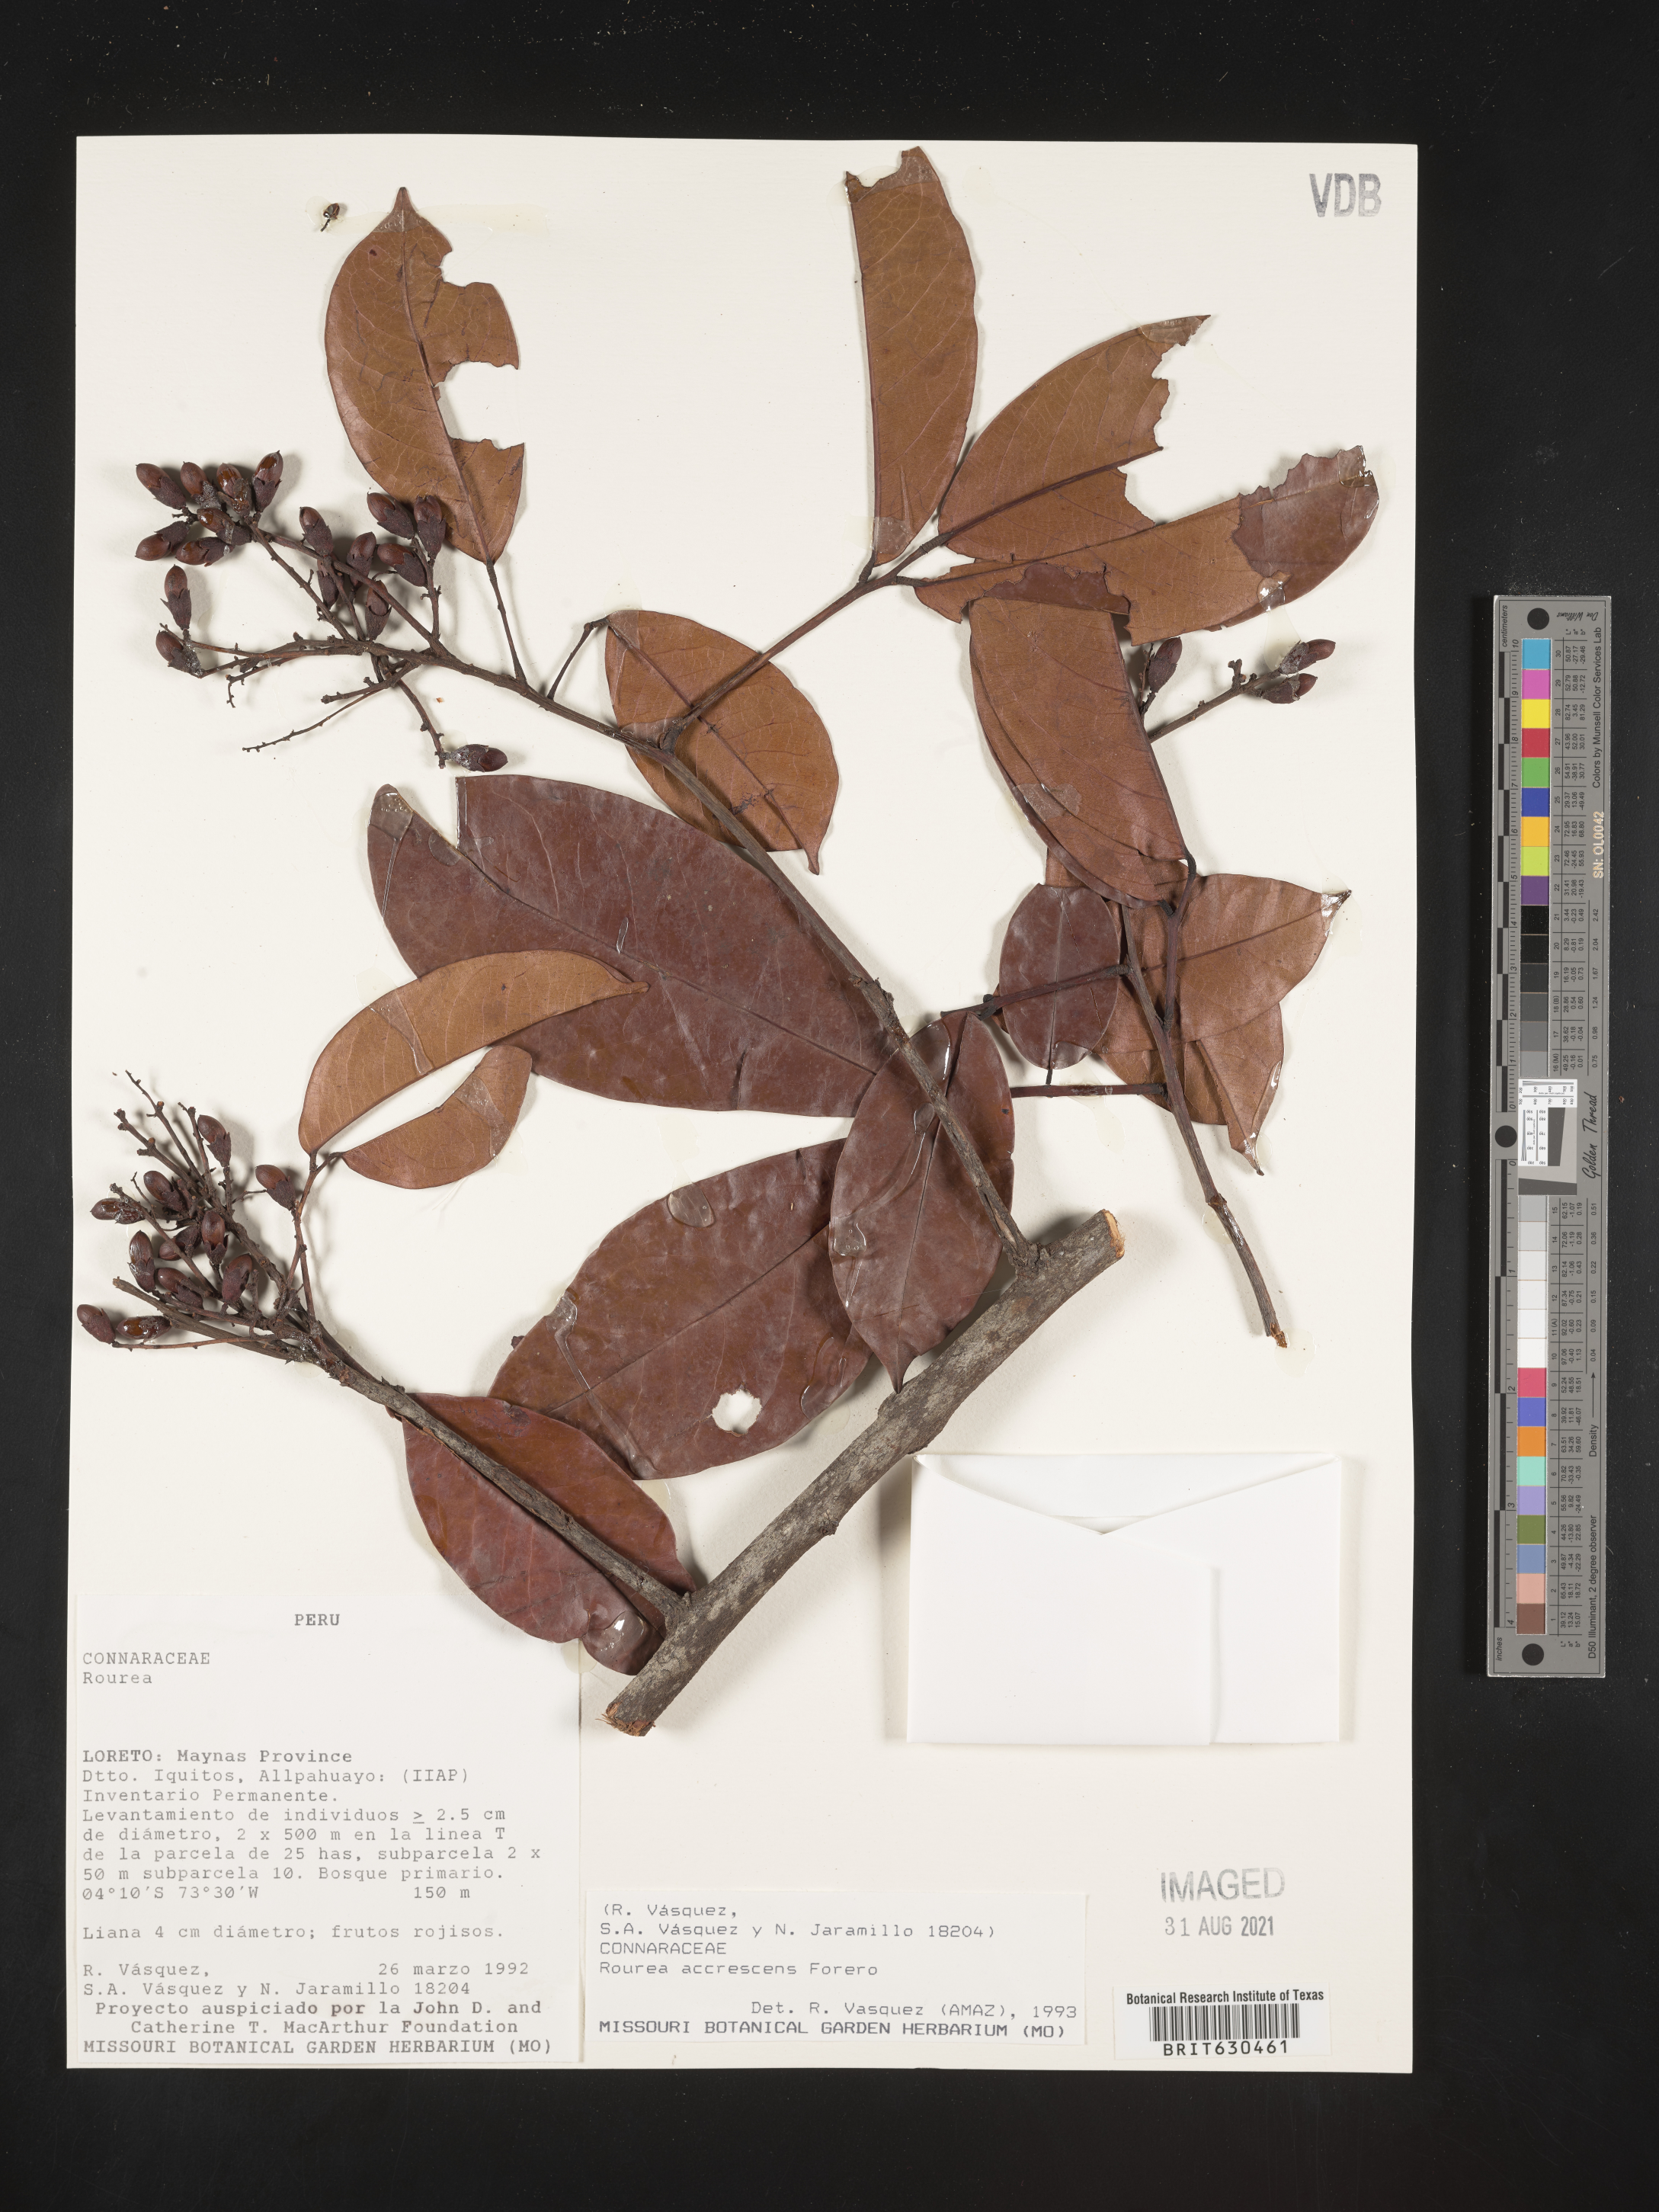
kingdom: Plantae
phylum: Tracheophyta
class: Magnoliopsida
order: Oxalidales
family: Connaraceae
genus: Rourea
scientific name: Rourea accrescens
